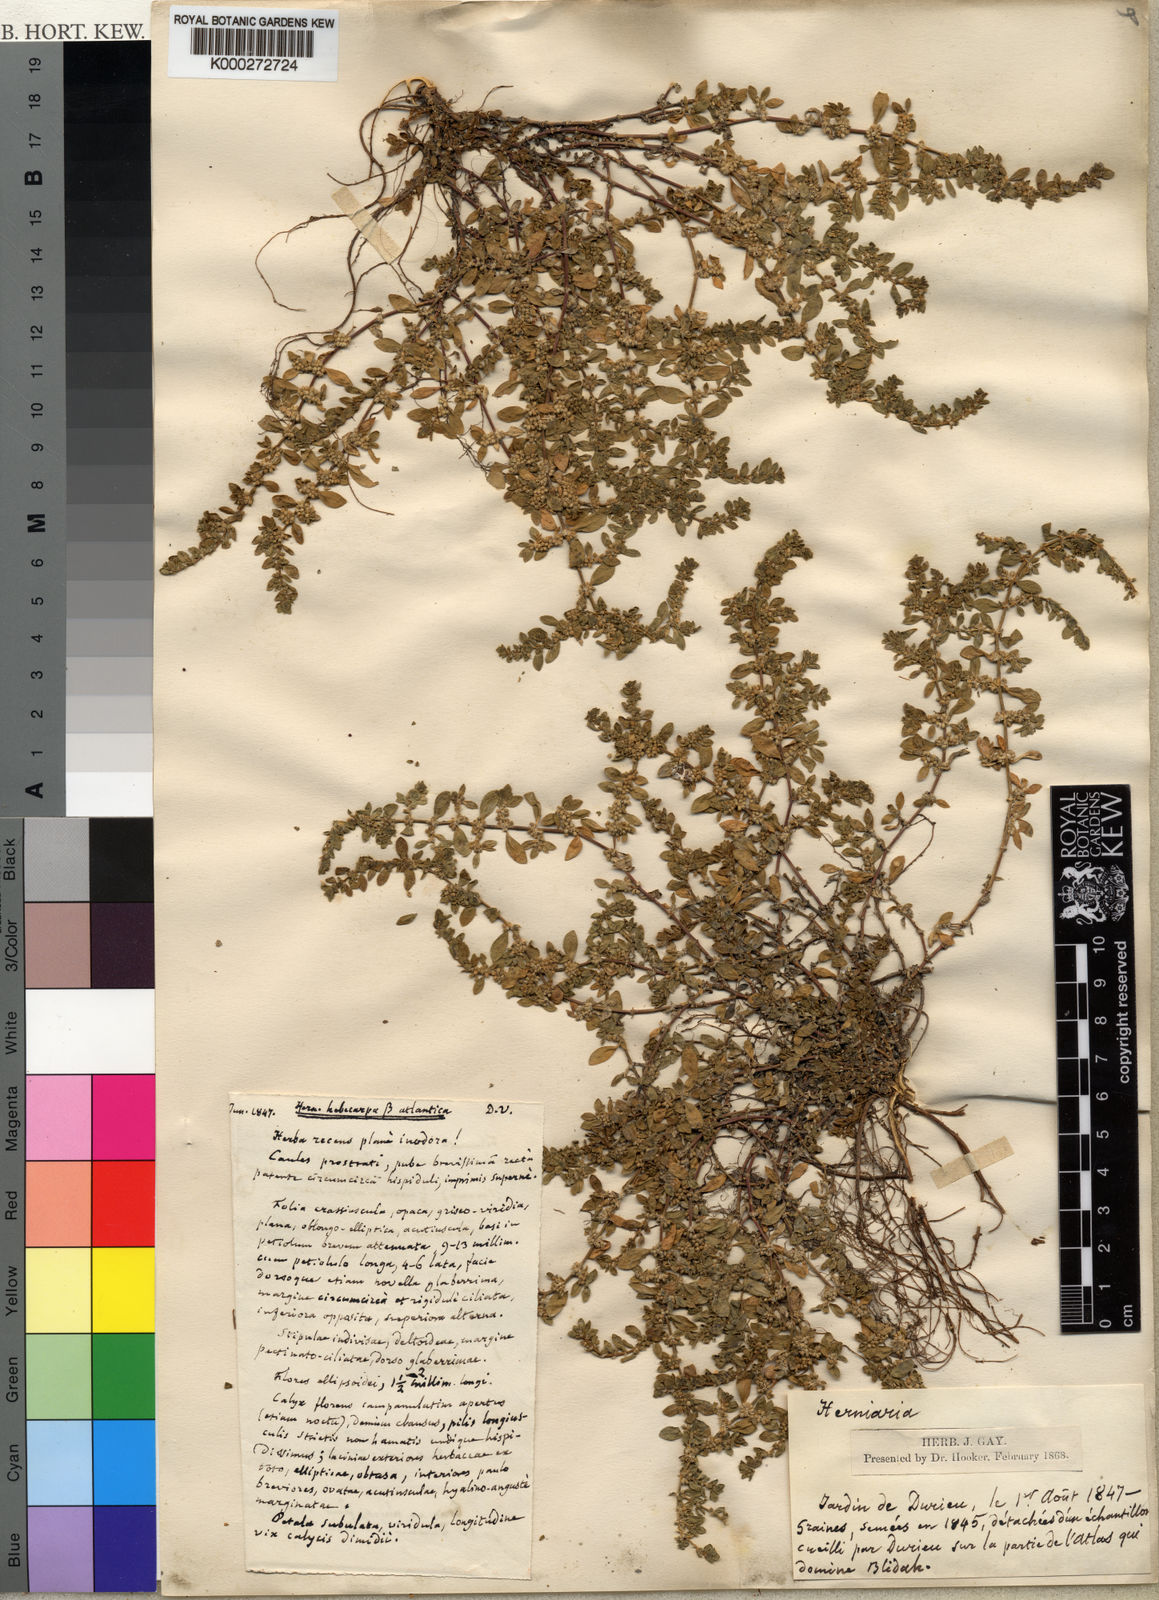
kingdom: Plantae
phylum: Tracheophyta
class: Magnoliopsida
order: Caryophyllales
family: Caryophyllaceae
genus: Herniaria
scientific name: Herniaria hebecarpa
